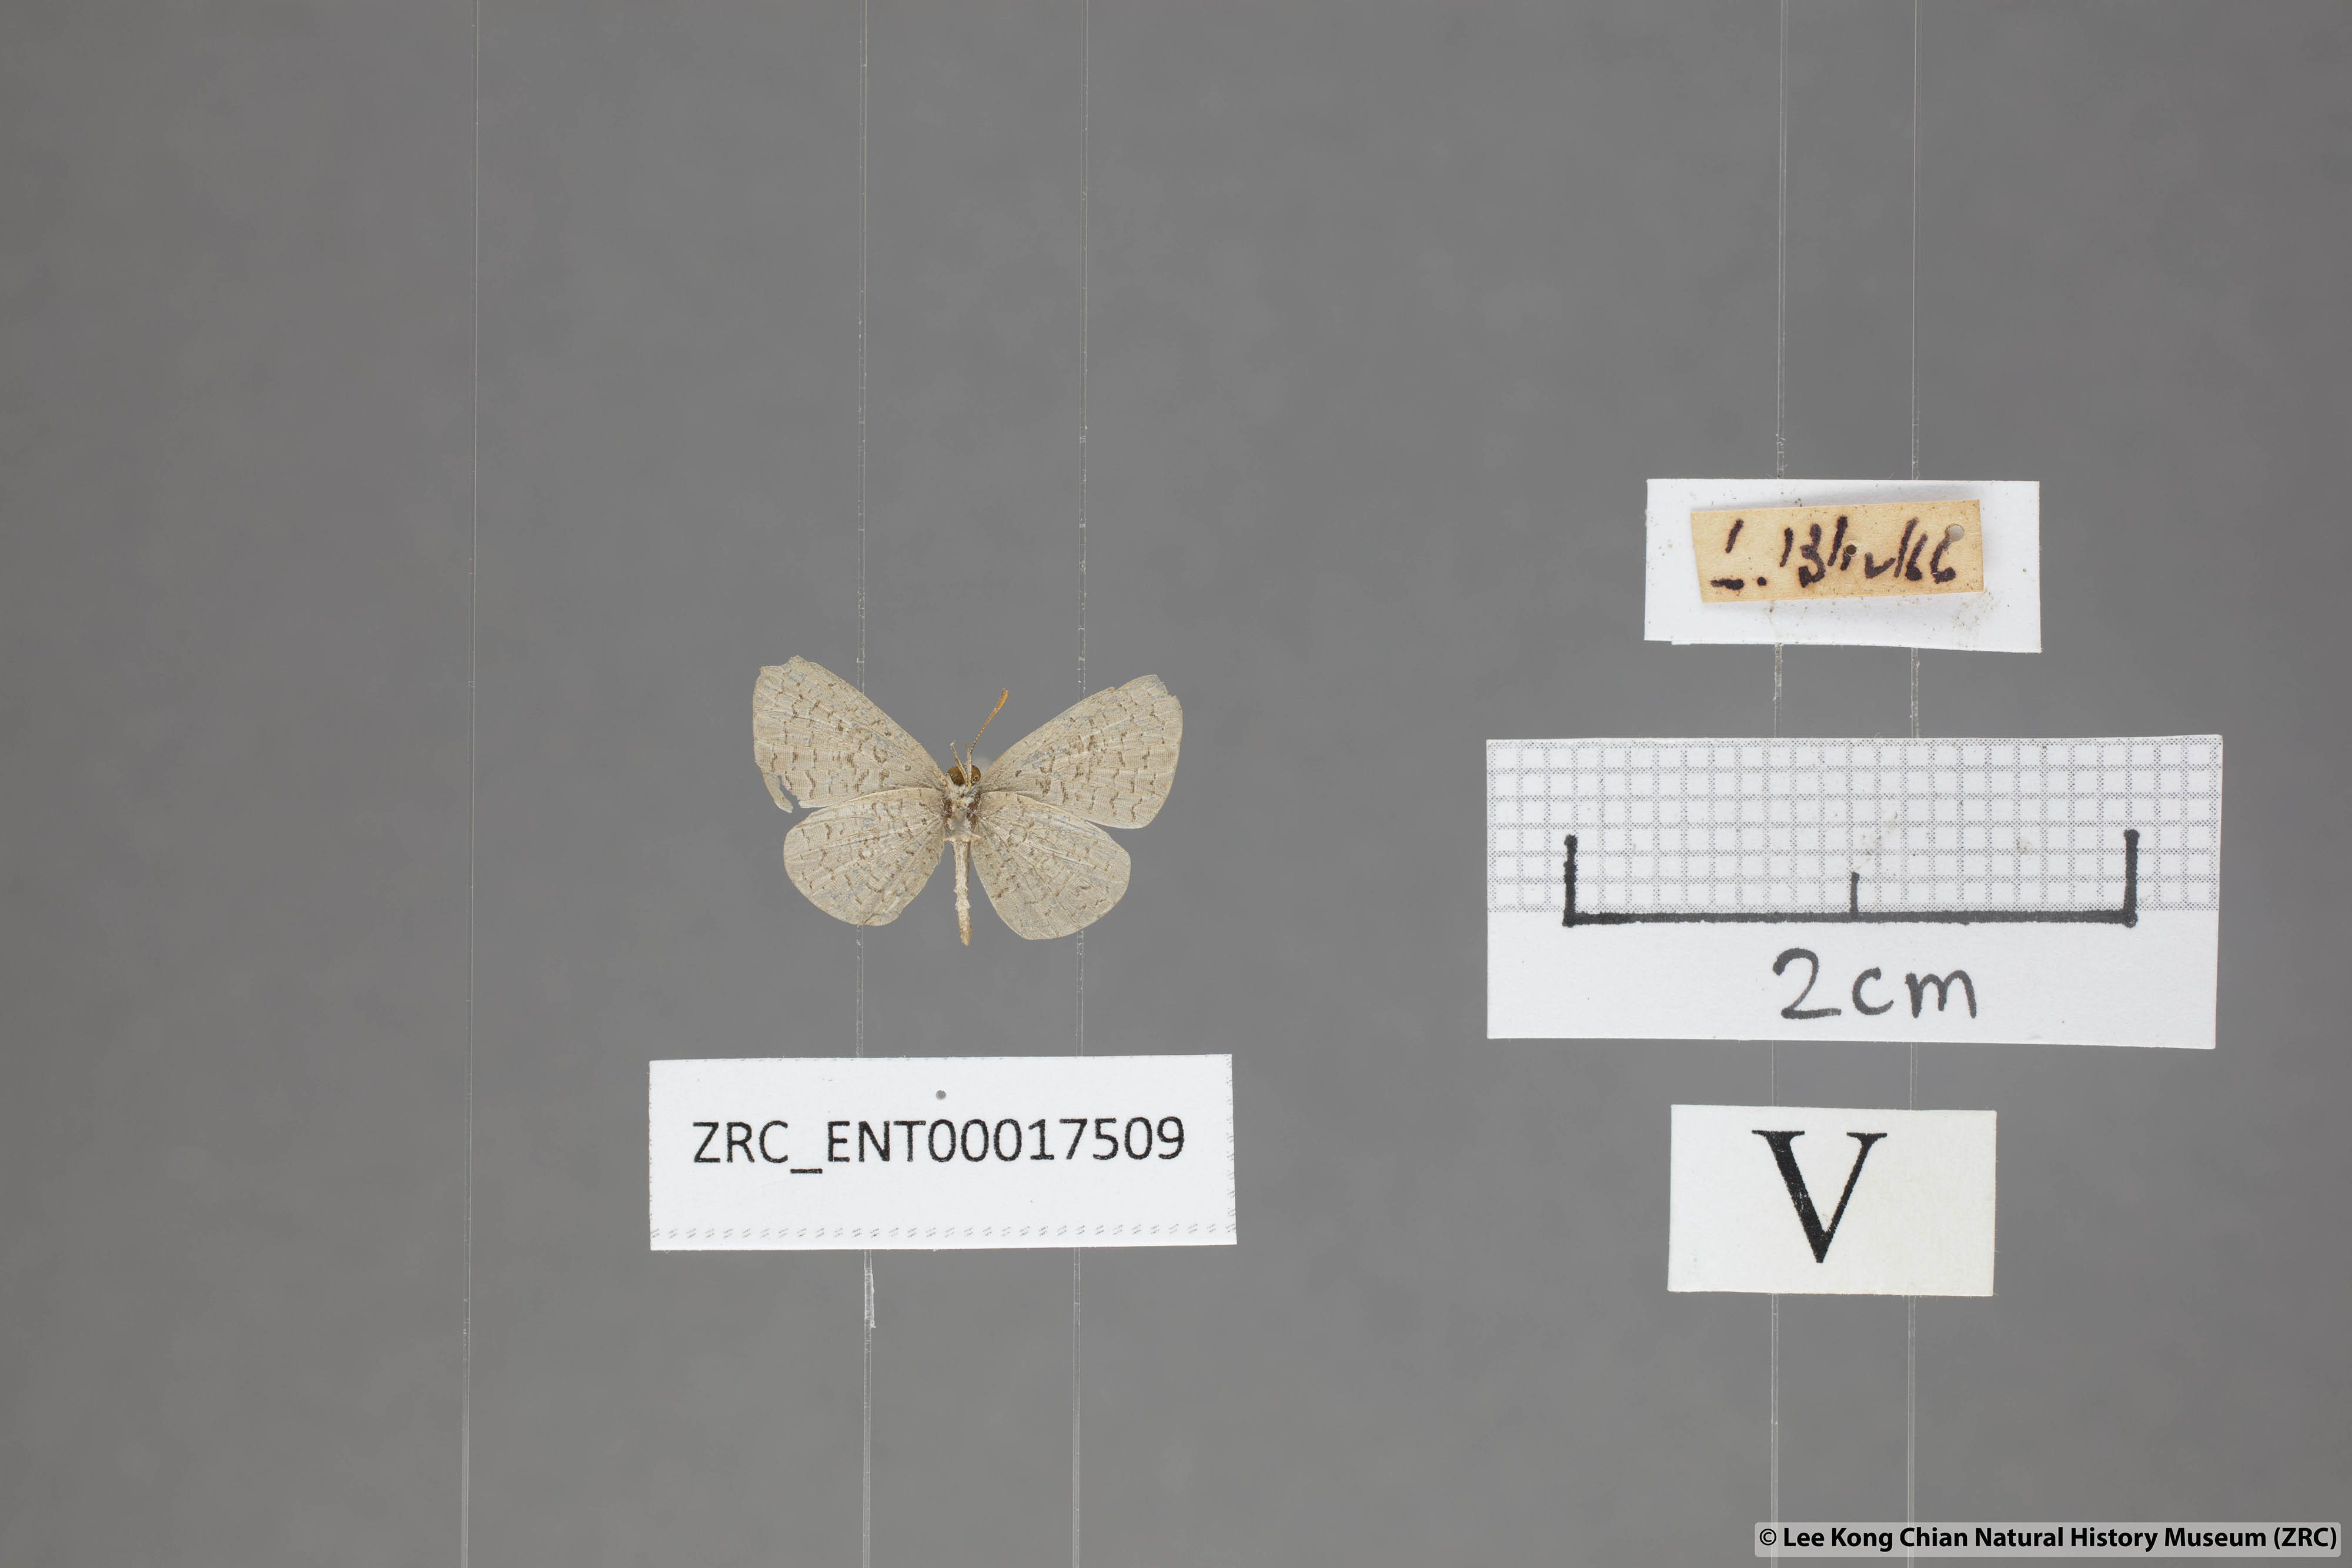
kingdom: Animalia
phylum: Arthropoda
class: Insecta
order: Lepidoptera
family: Lycaenidae
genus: Spalgis
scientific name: Spalgis epeus
